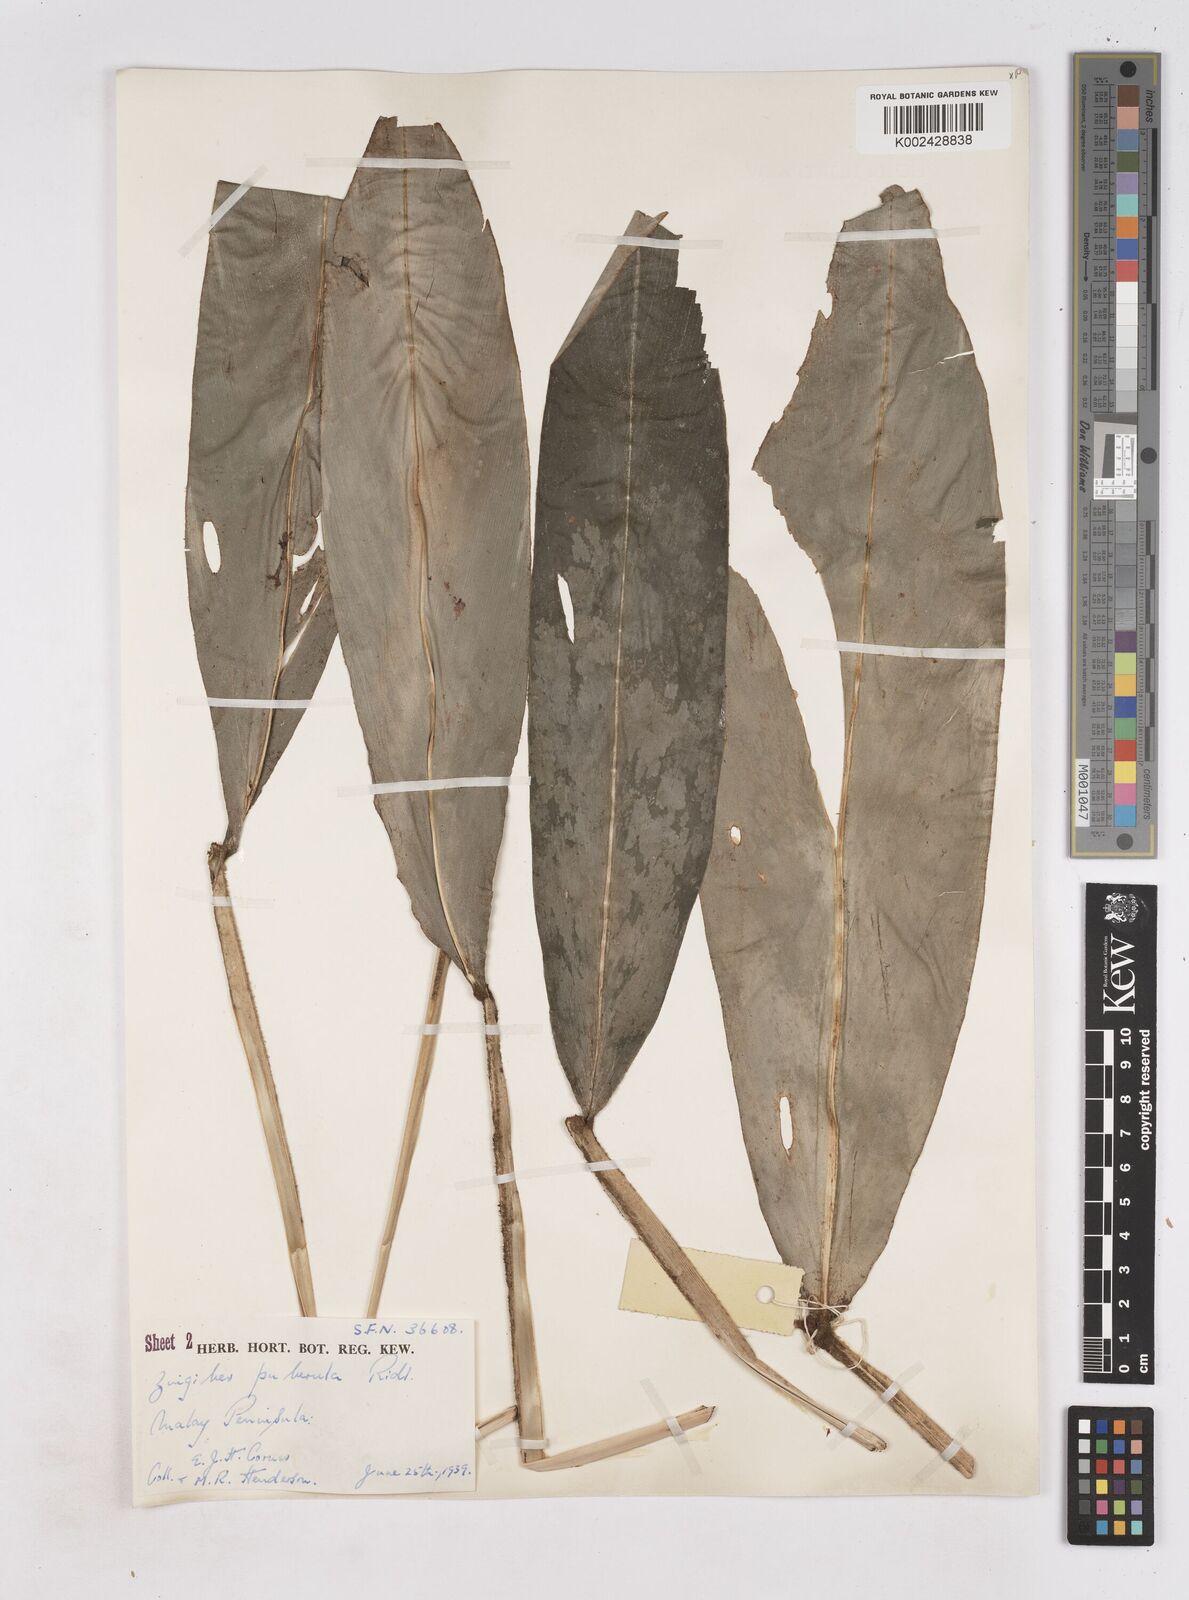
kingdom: Plantae
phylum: Tracheophyta
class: Liliopsida
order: Zingiberales
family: Zingiberaceae
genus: Zingiber
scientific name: Zingiber puberulum
